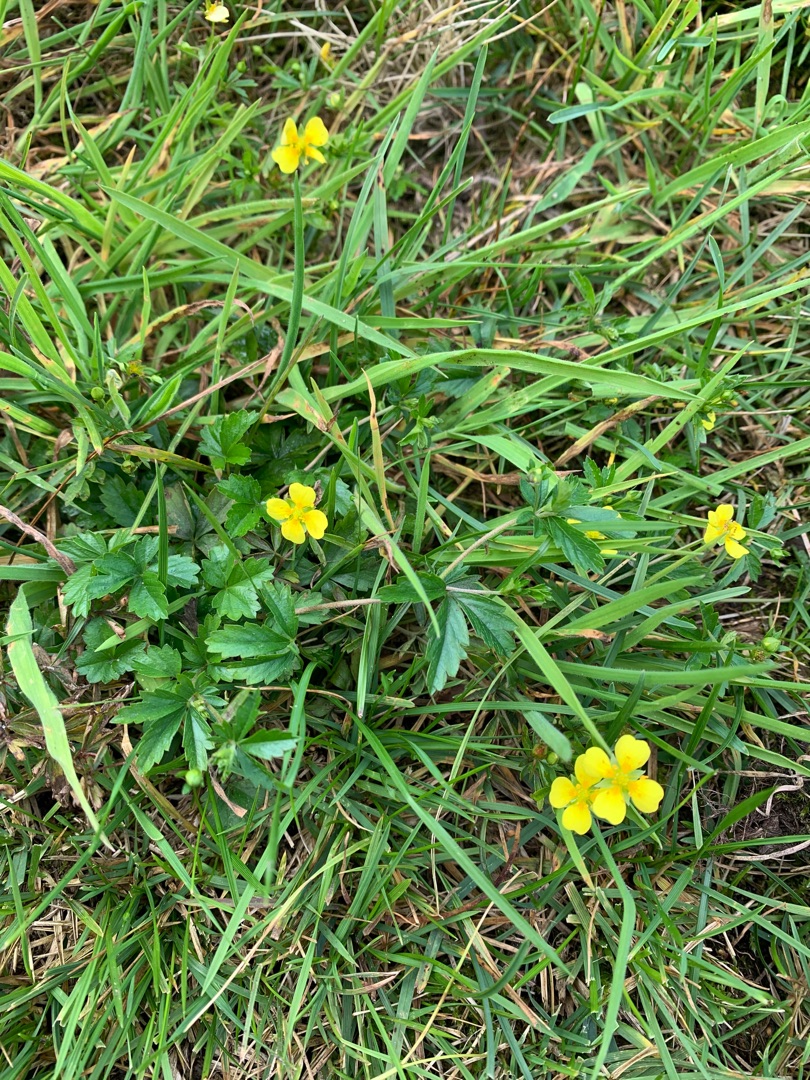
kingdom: Plantae
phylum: Tracheophyta
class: Magnoliopsida
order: Rosales
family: Rosaceae
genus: Potentilla
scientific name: Potentilla erecta
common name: Tormentil
